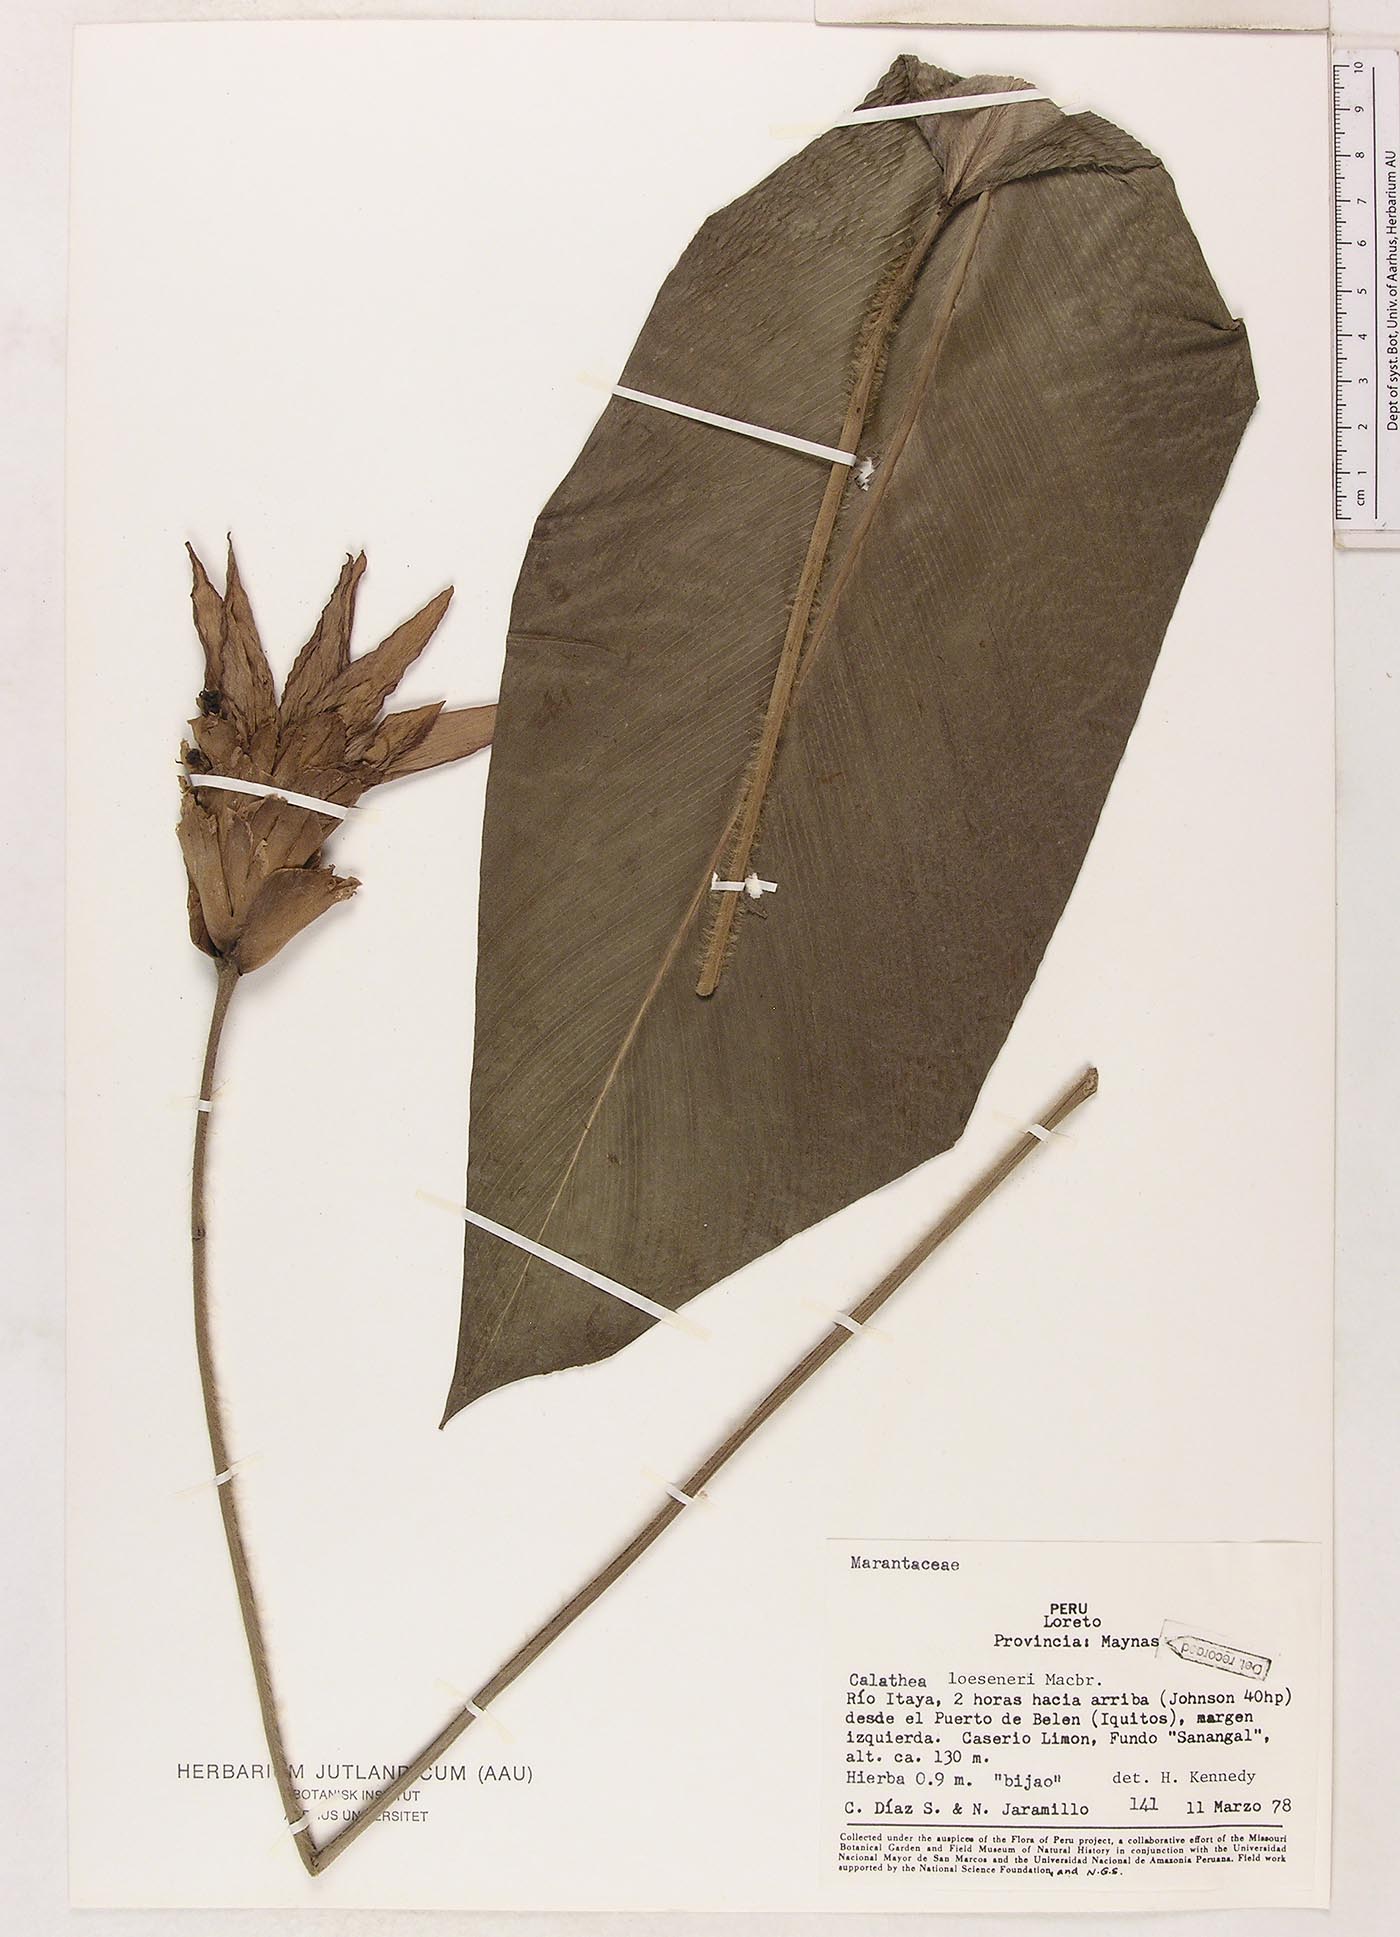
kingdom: Plantae
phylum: Tracheophyta
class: Liliopsida
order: Zingiberales
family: Marantaceae
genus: Goeppertia
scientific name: Goeppertia loeseneri
